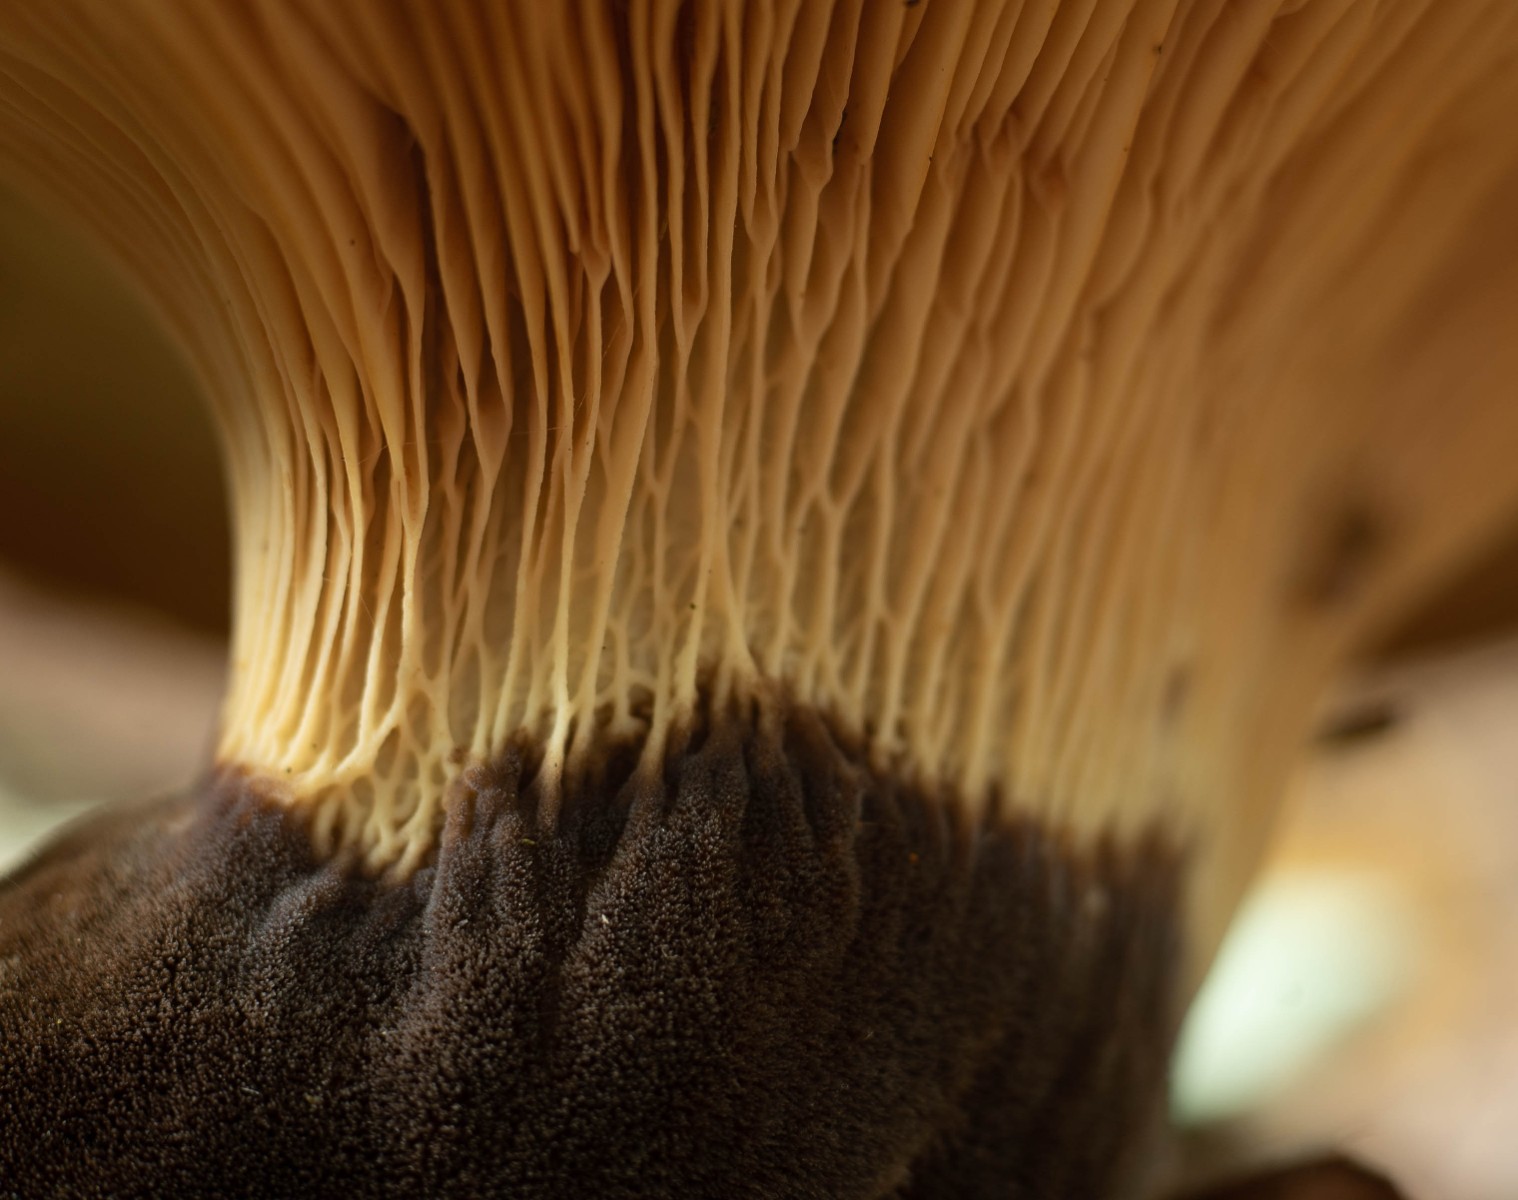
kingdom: Fungi
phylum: Basidiomycota
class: Agaricomycetes
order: Boletales
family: Tapinellaceae
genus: Tapinella
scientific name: Tapinella atrotomentosa
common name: sortfiltet viftesvamp
